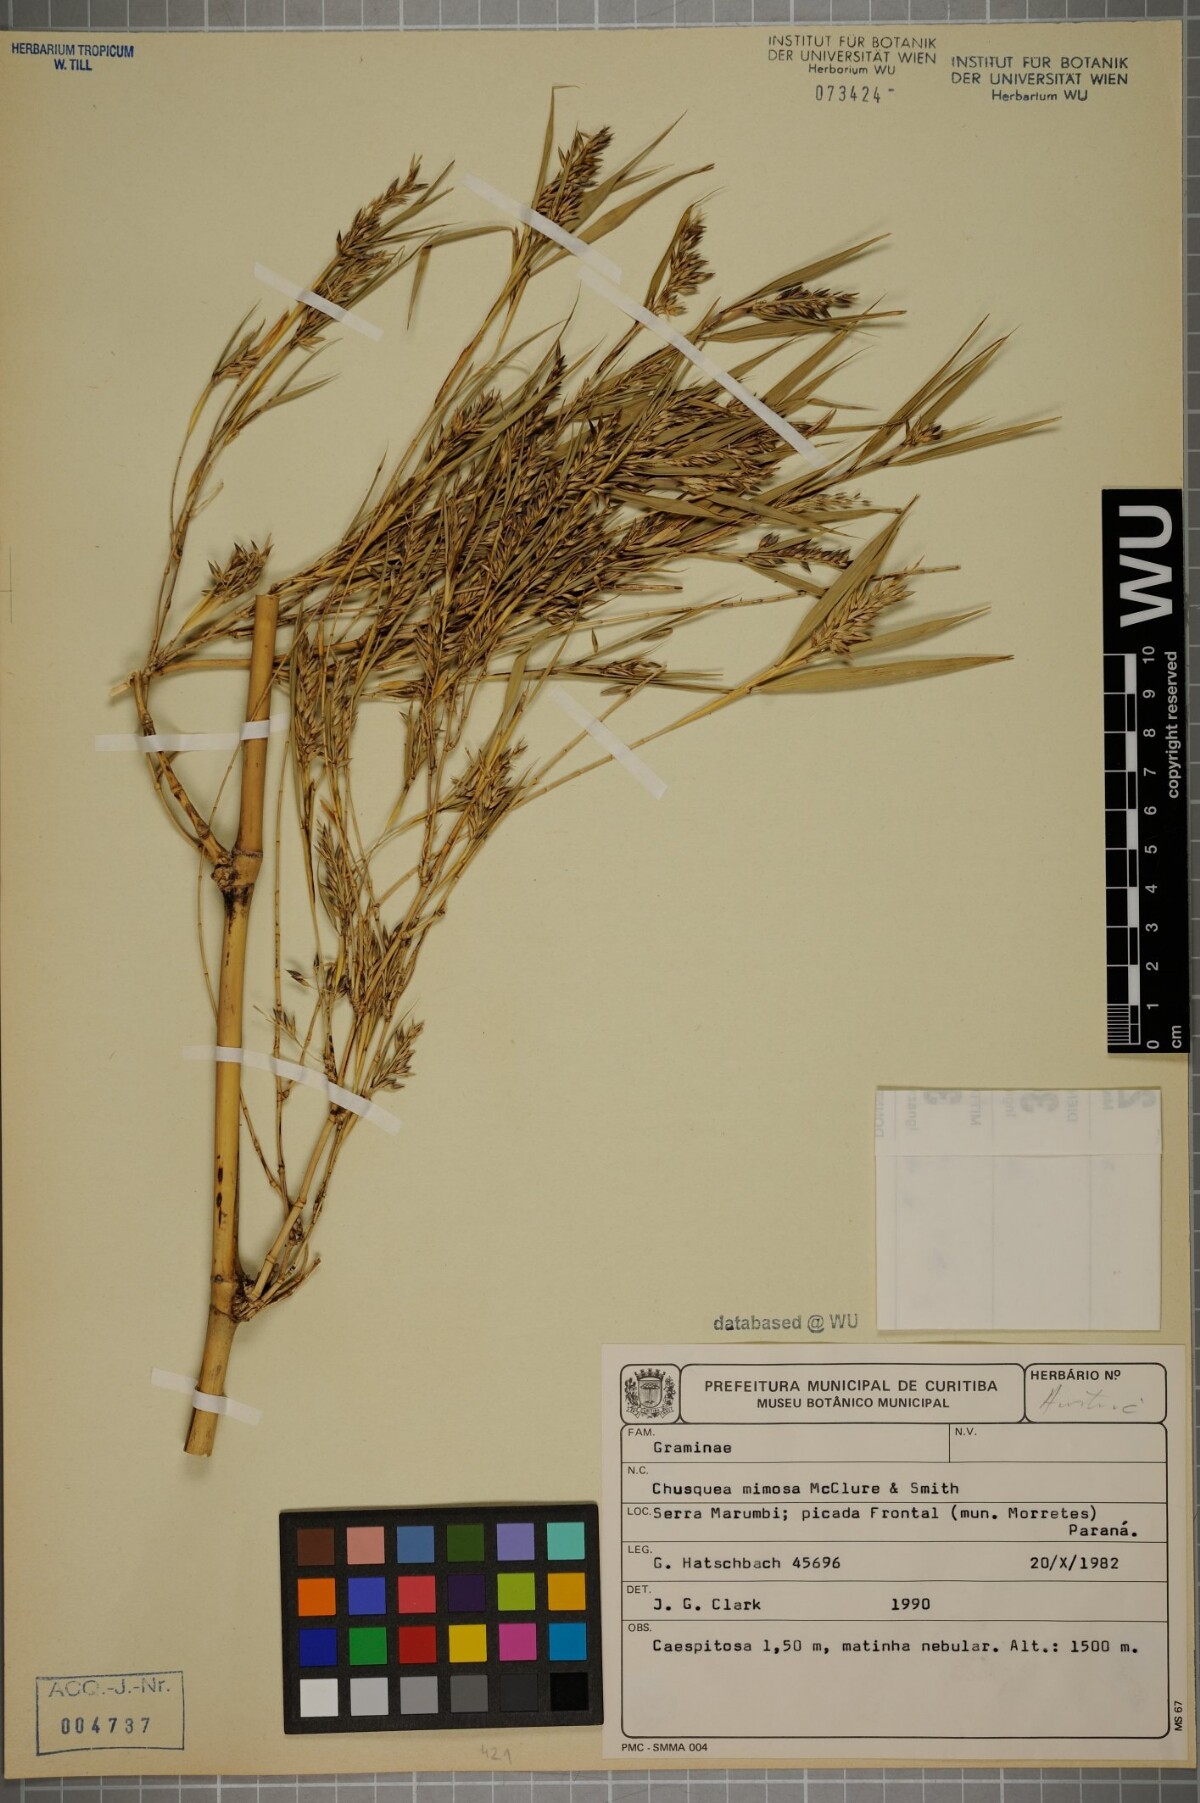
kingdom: Plantae
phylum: Tracheophyta
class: Liliopsida
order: Poales
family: Poaceae
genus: Chusquea
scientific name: Chusquea mimosa
